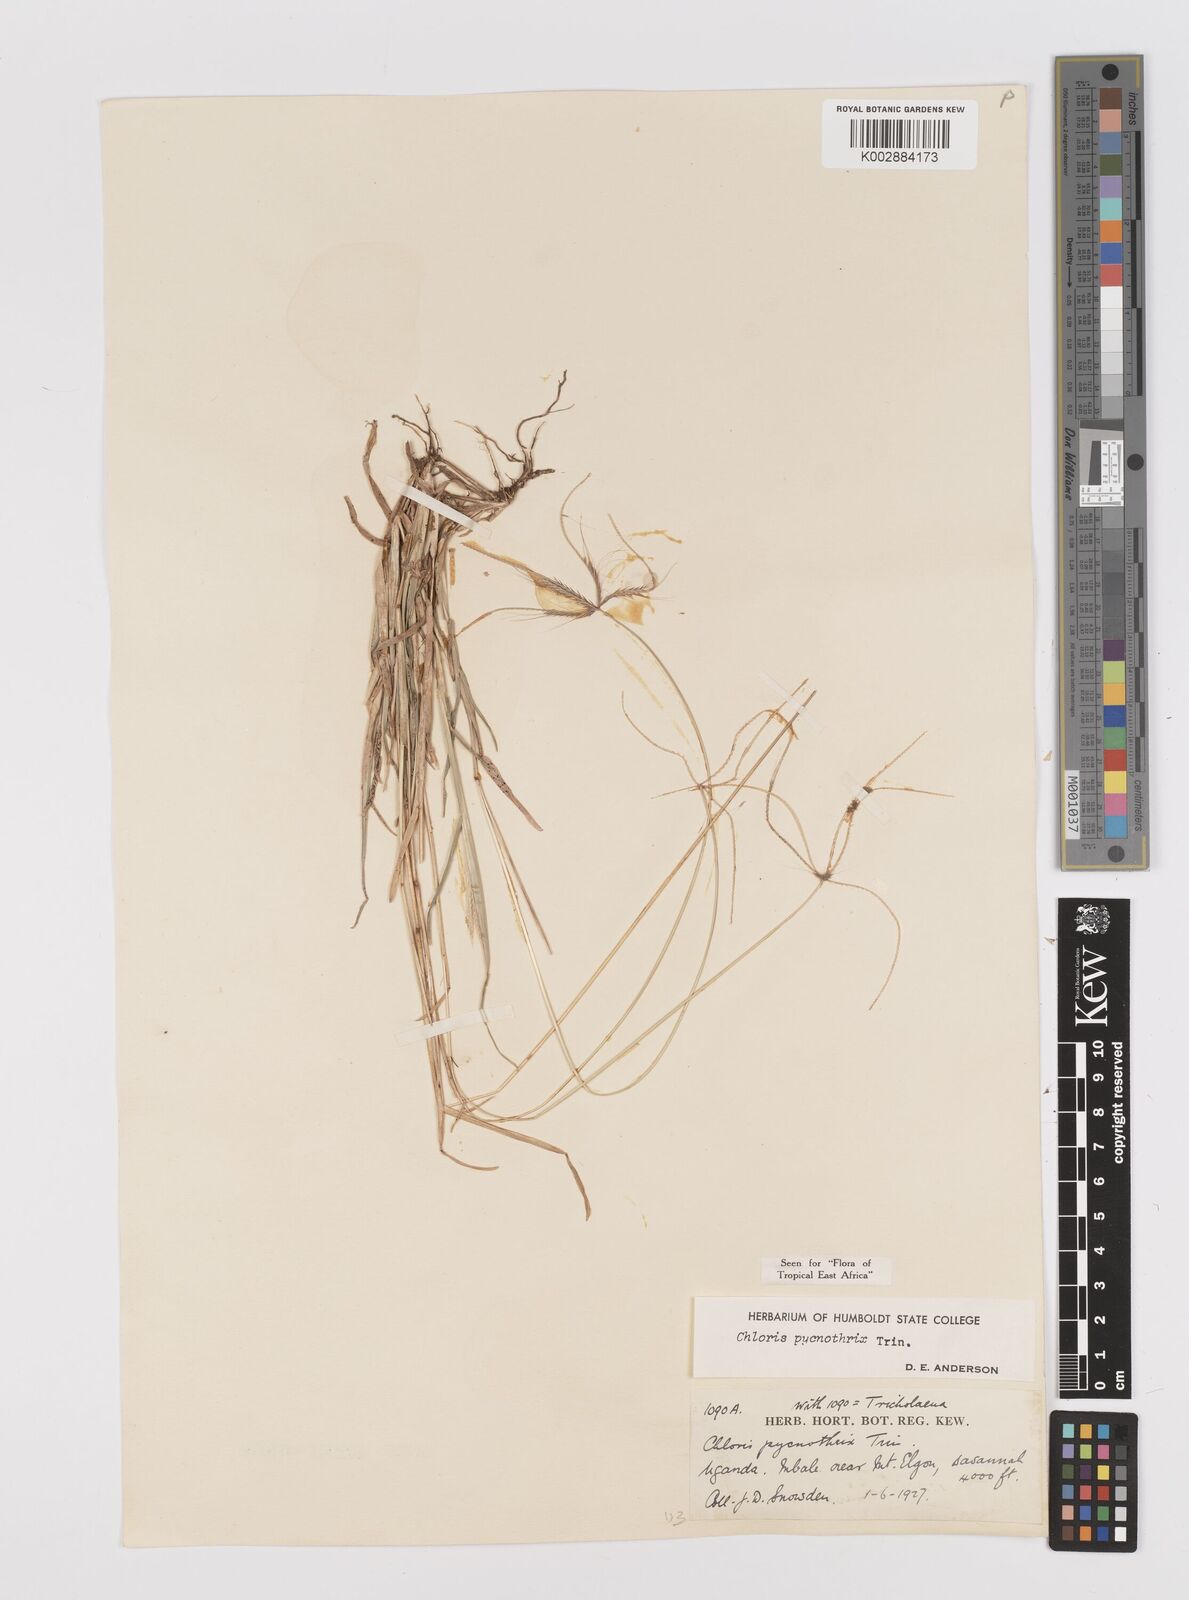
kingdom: Plantae
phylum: Tracheophyta
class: Liliopsida
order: Poales
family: Poaceae
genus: Chloris
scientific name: Chloris pycnothrix
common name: Spiderweb chloris
